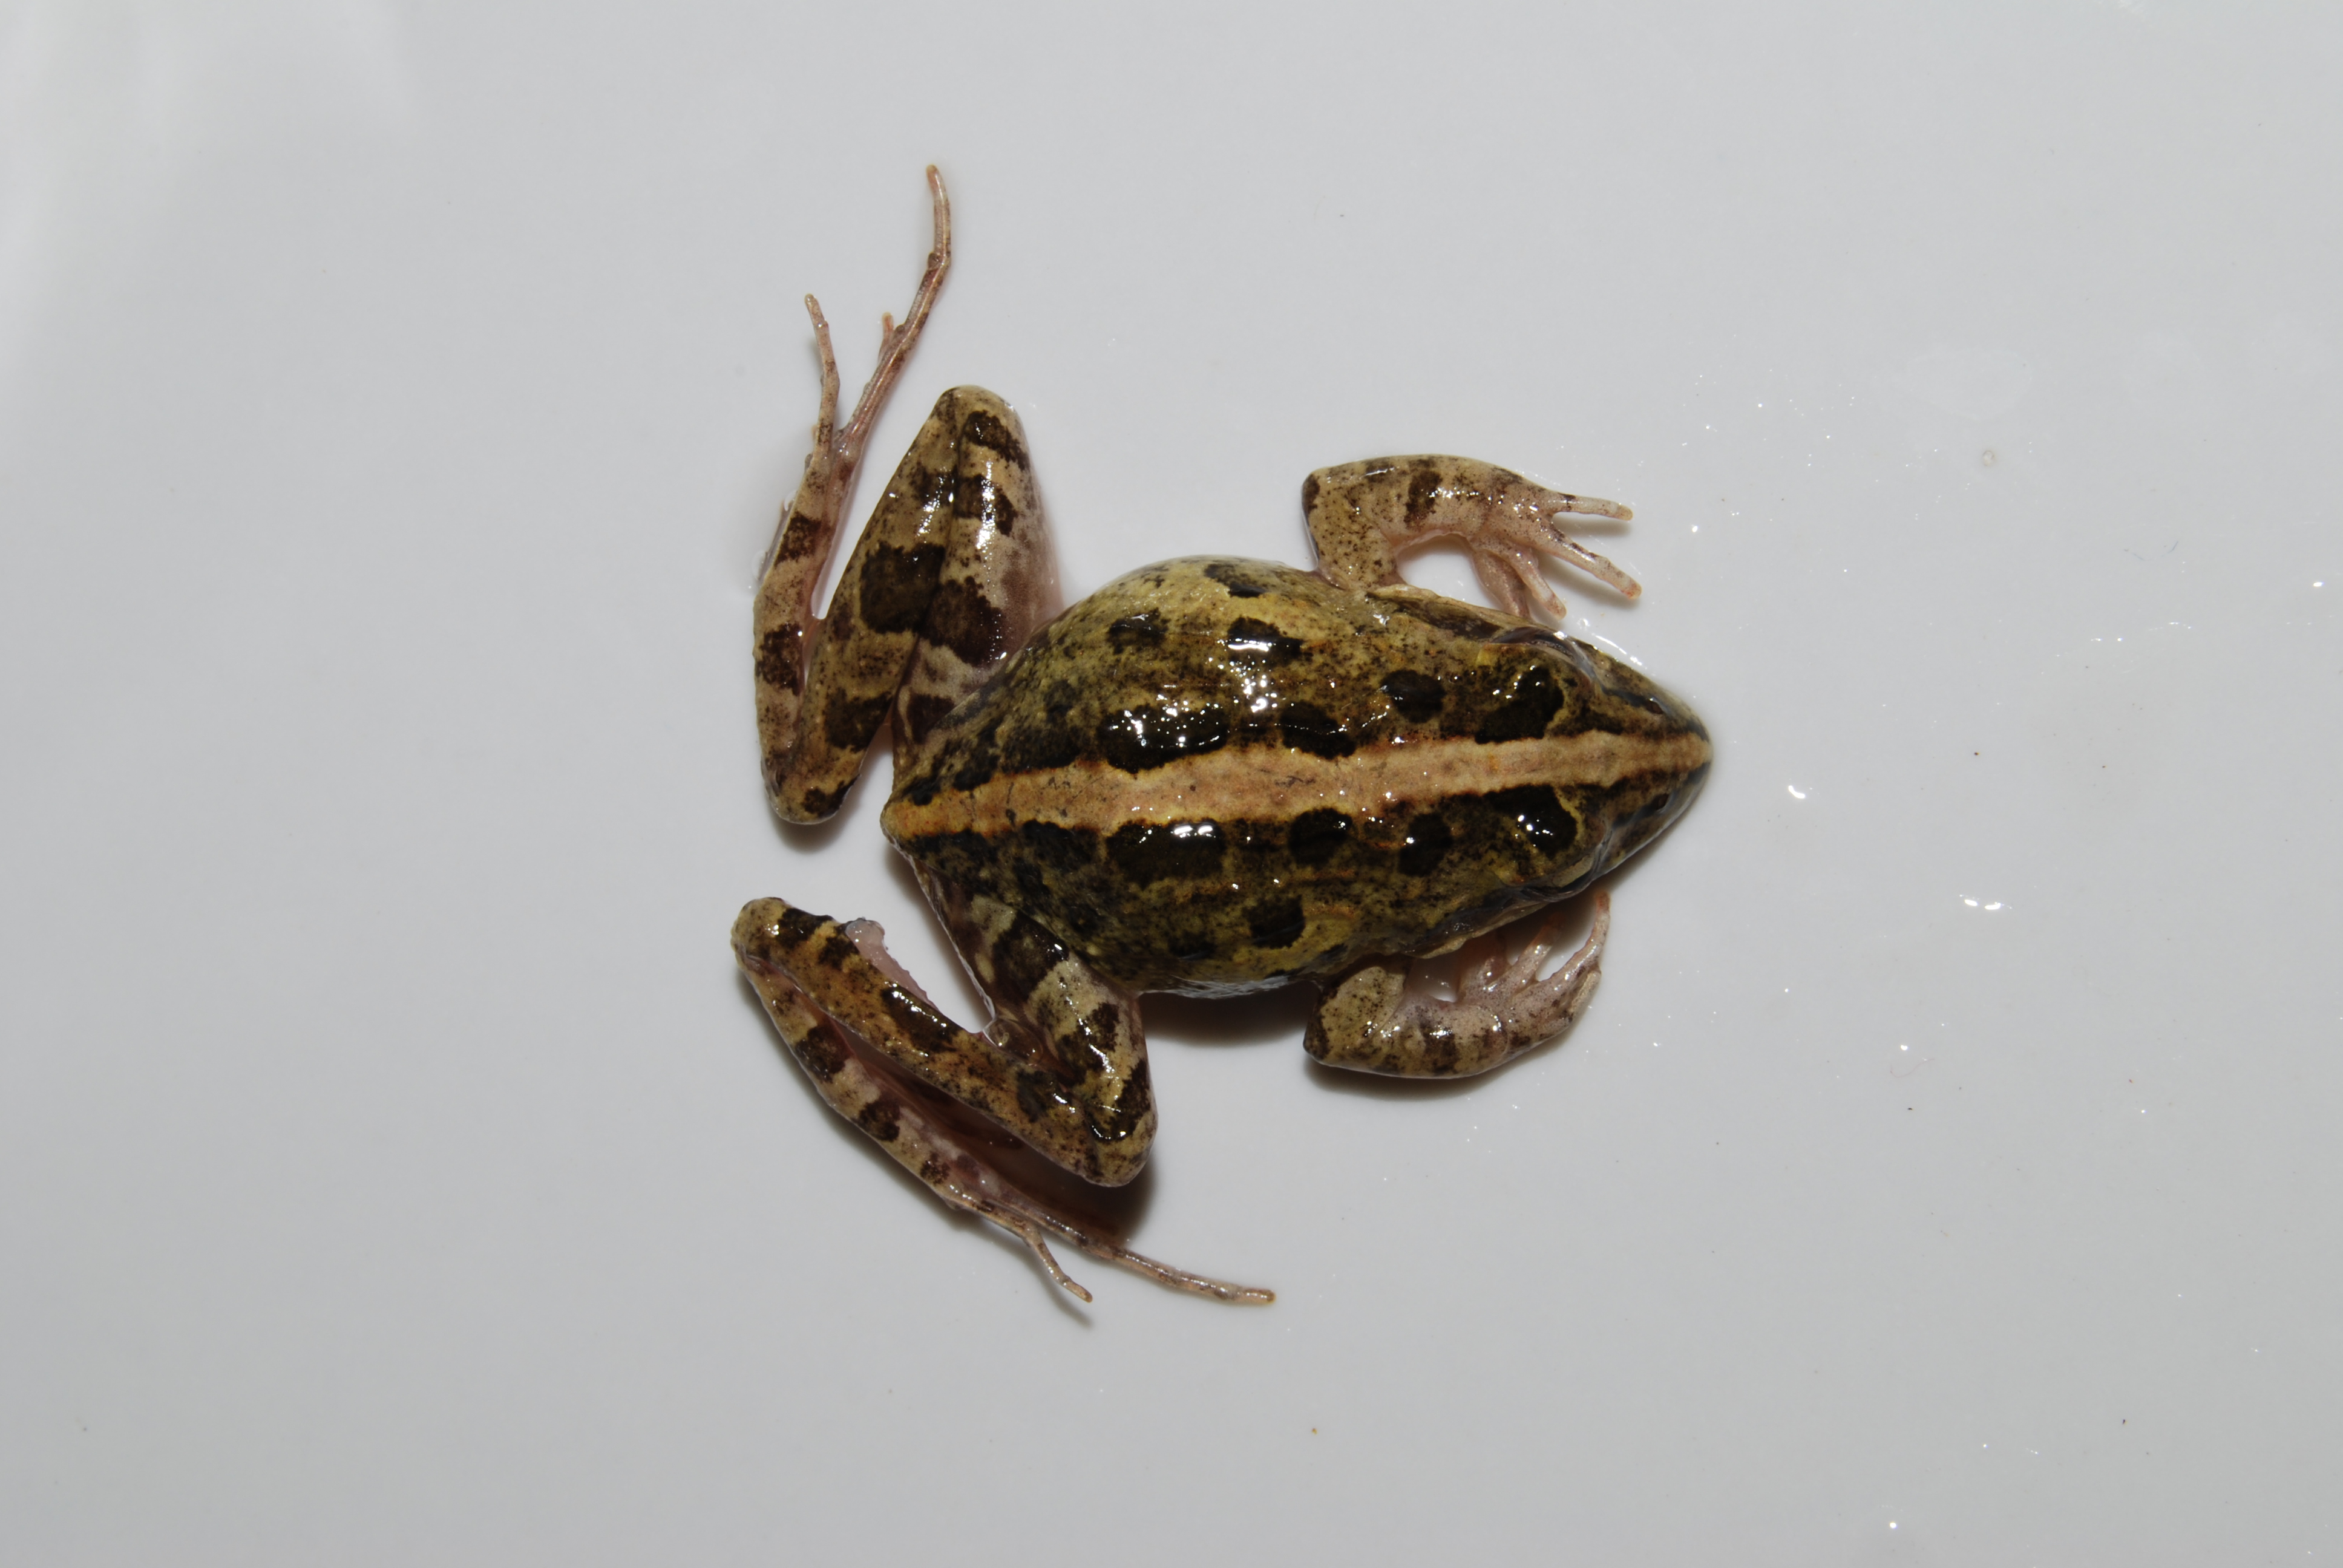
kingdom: Animalia
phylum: Chordata
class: Amphibia
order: Anura
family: Pyxicephalidae
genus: Strongylopus
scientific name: Strongylopus grayii
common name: Gray's stream frog
